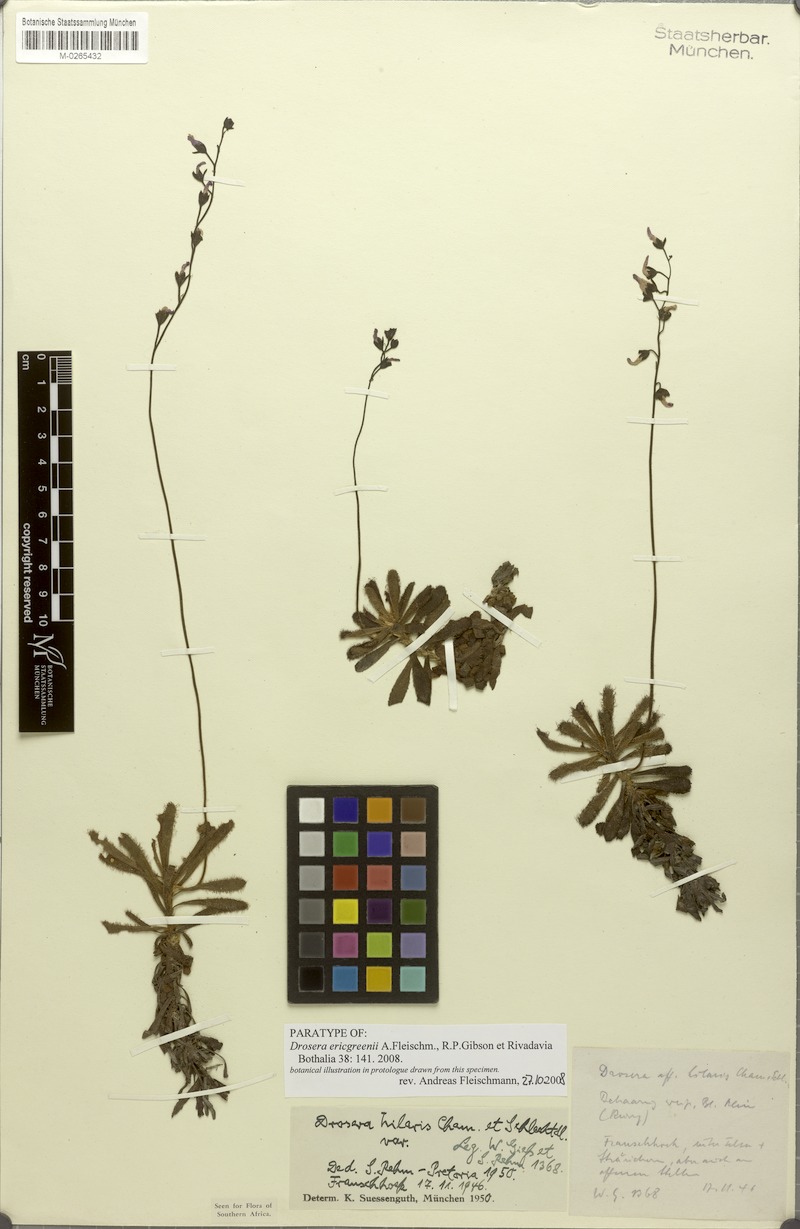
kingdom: Plantae
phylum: Tracheophyta
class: Magnoliopsida
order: Caryophyllales
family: Droseraceae
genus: Drosera
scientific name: Drosera ericgreenii
